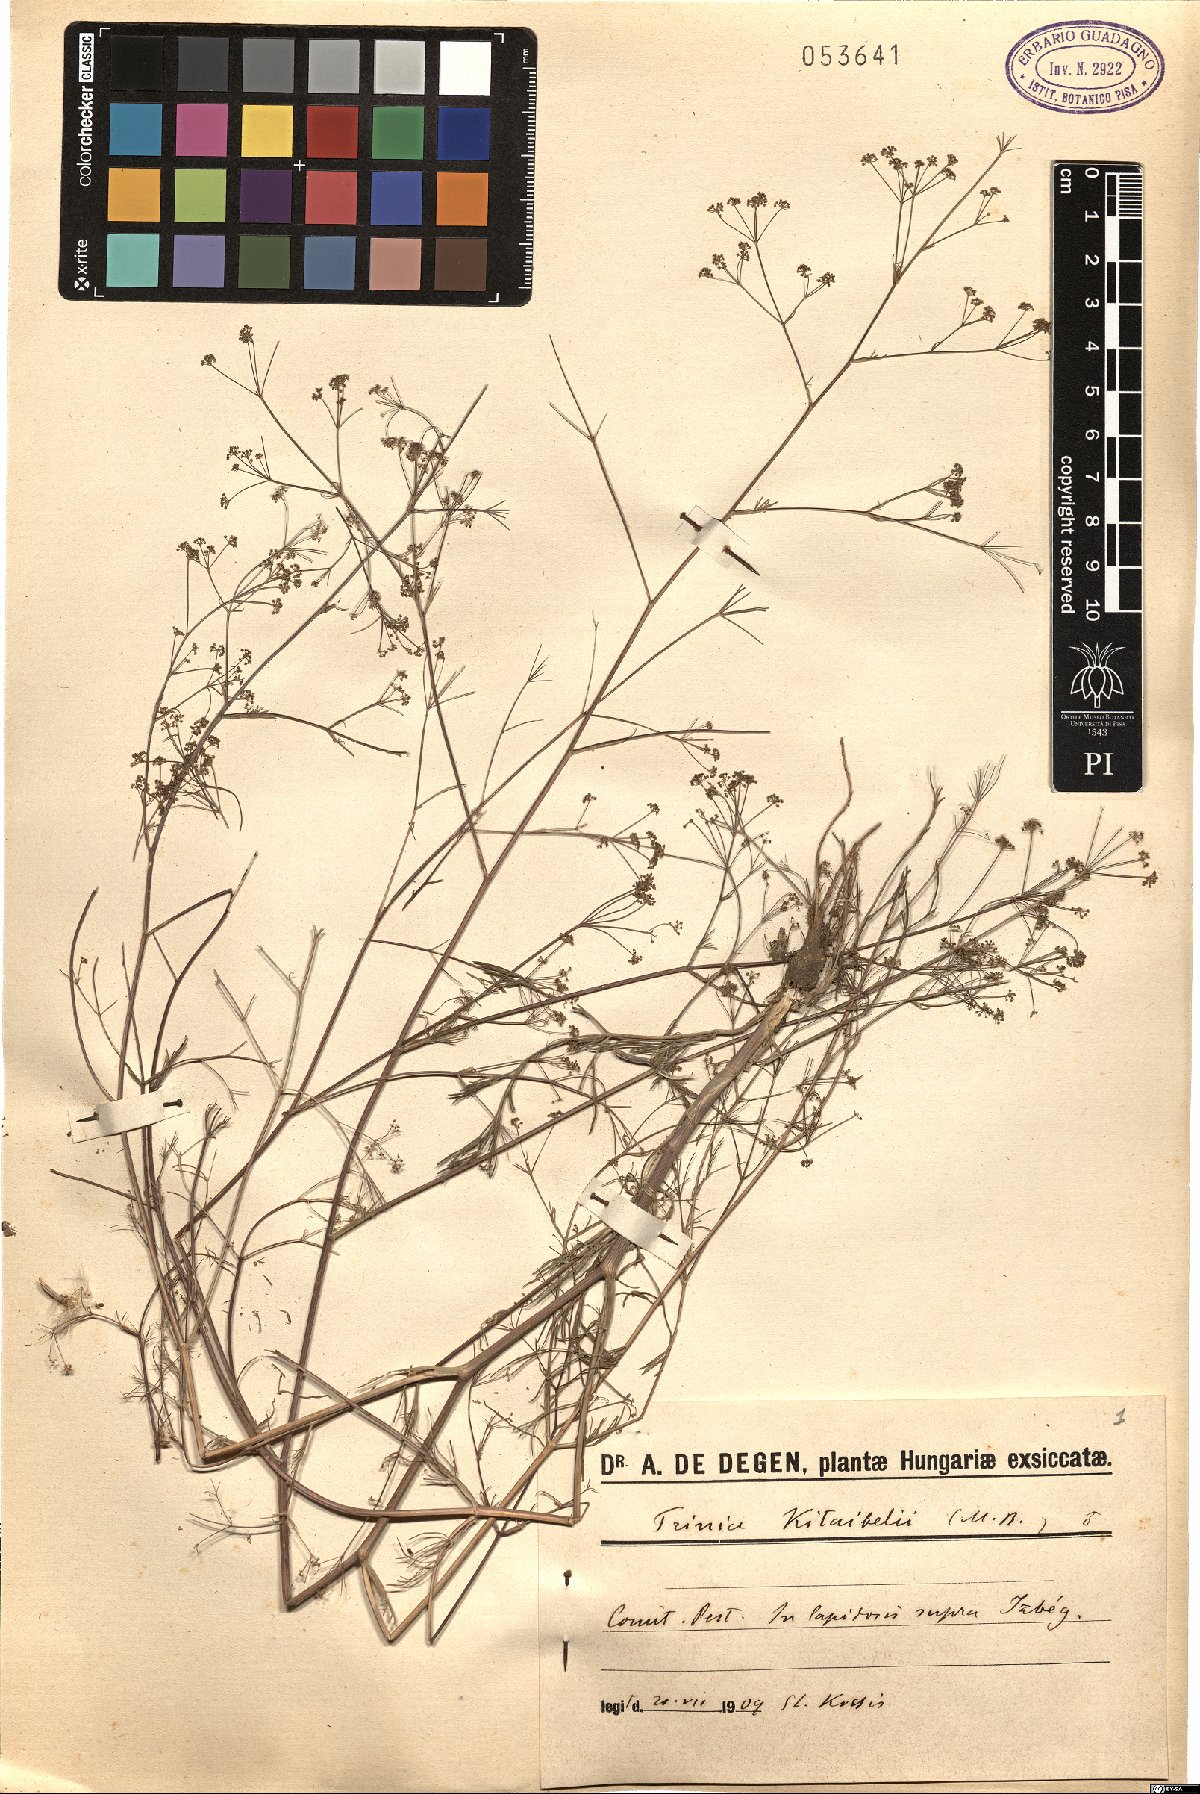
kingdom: Plantae
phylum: Tracheophyta
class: Magnoliopsida
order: Apiales
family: Apiaceae
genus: Trinia
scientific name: Trinia kitaibelii
